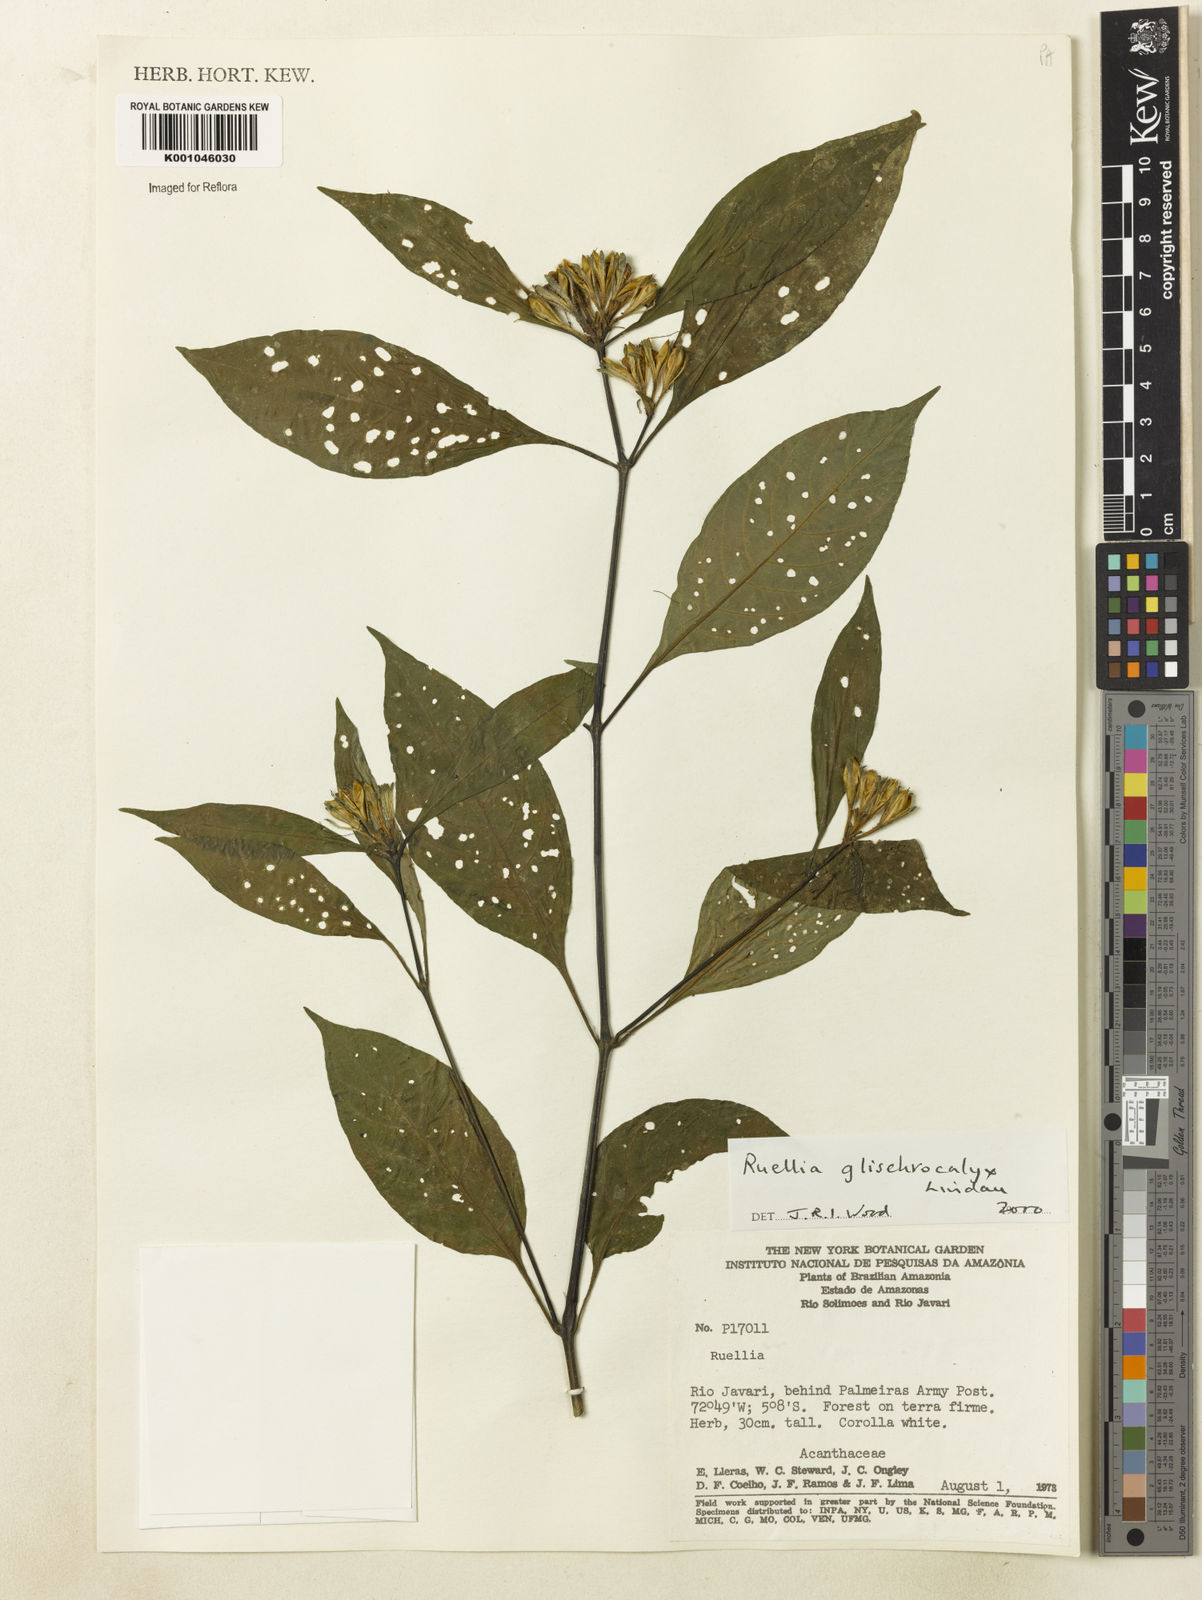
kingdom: Plantae
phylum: Tracheophyta
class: Magnoliopsida
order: Lamiales
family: Acanthaceae
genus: Ruellia
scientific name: Ruellia glischrocalyx
